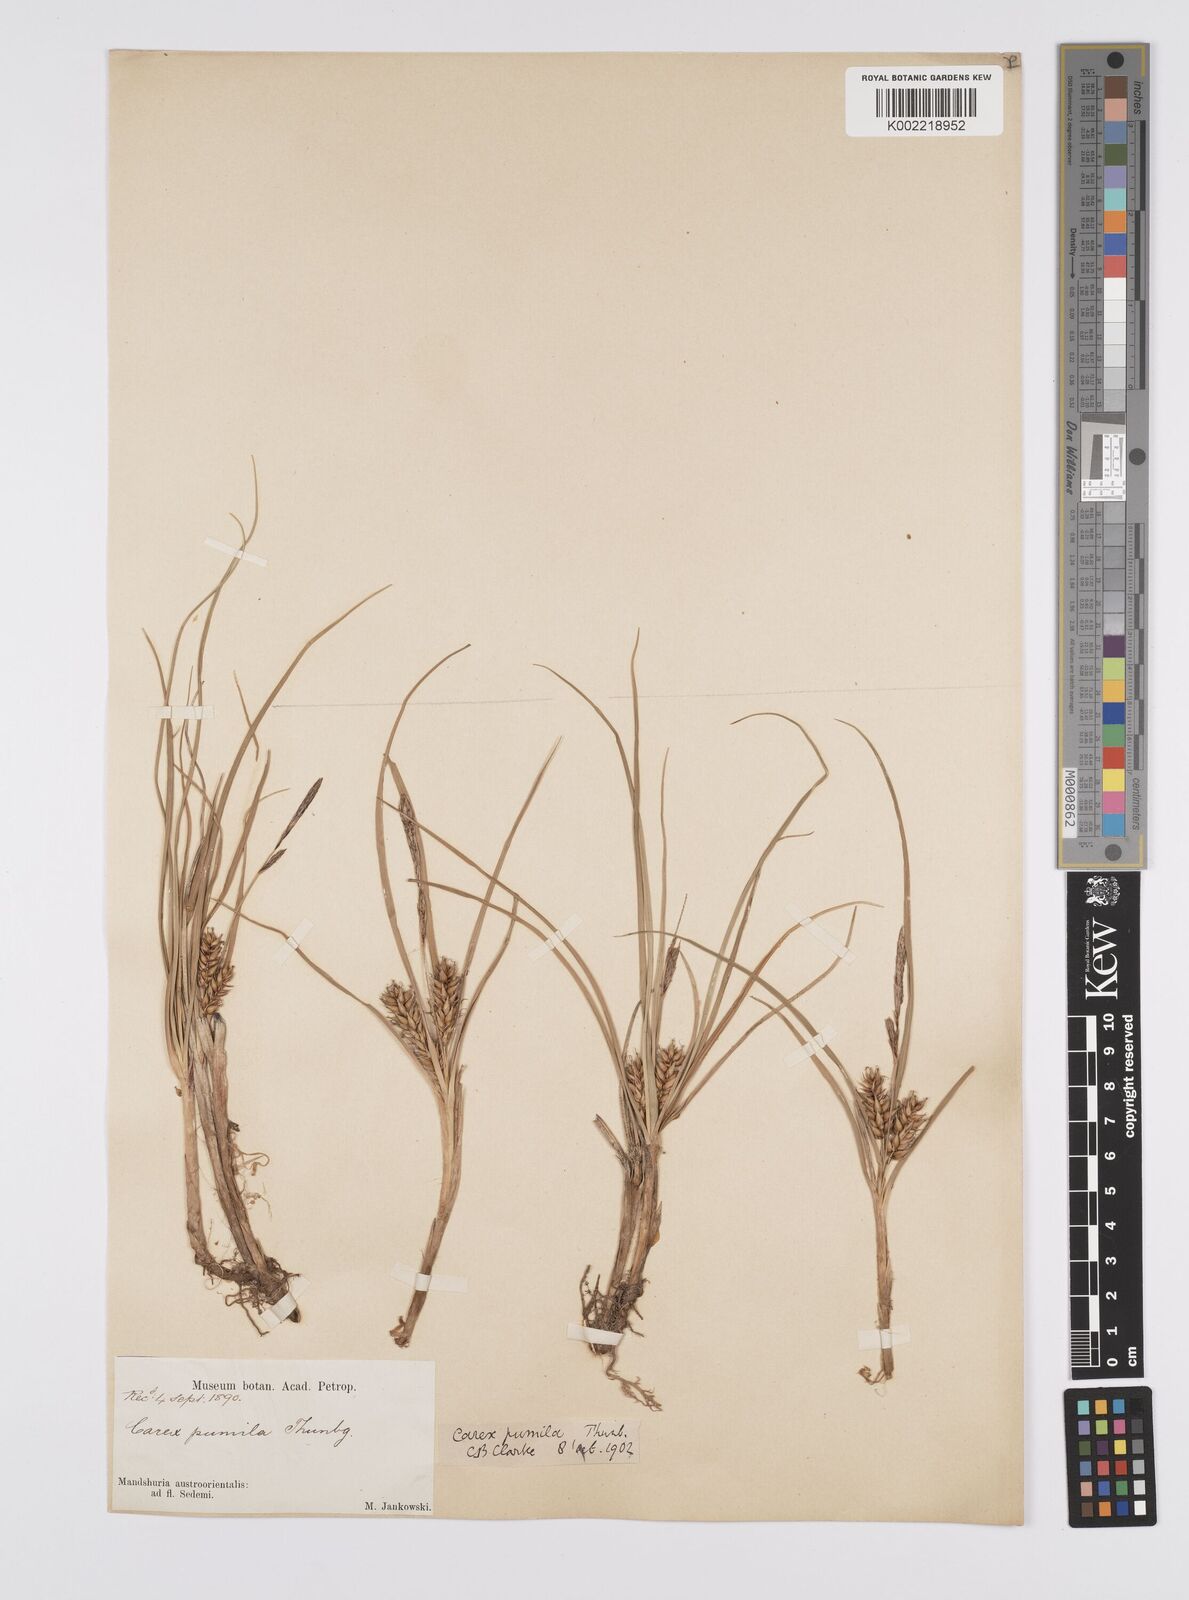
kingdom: Plantae
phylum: Tracheophyta
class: Liliopsida
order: Poales
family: Cyperaceae
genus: Carex
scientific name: Carex pumila
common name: Dwarf sedge
